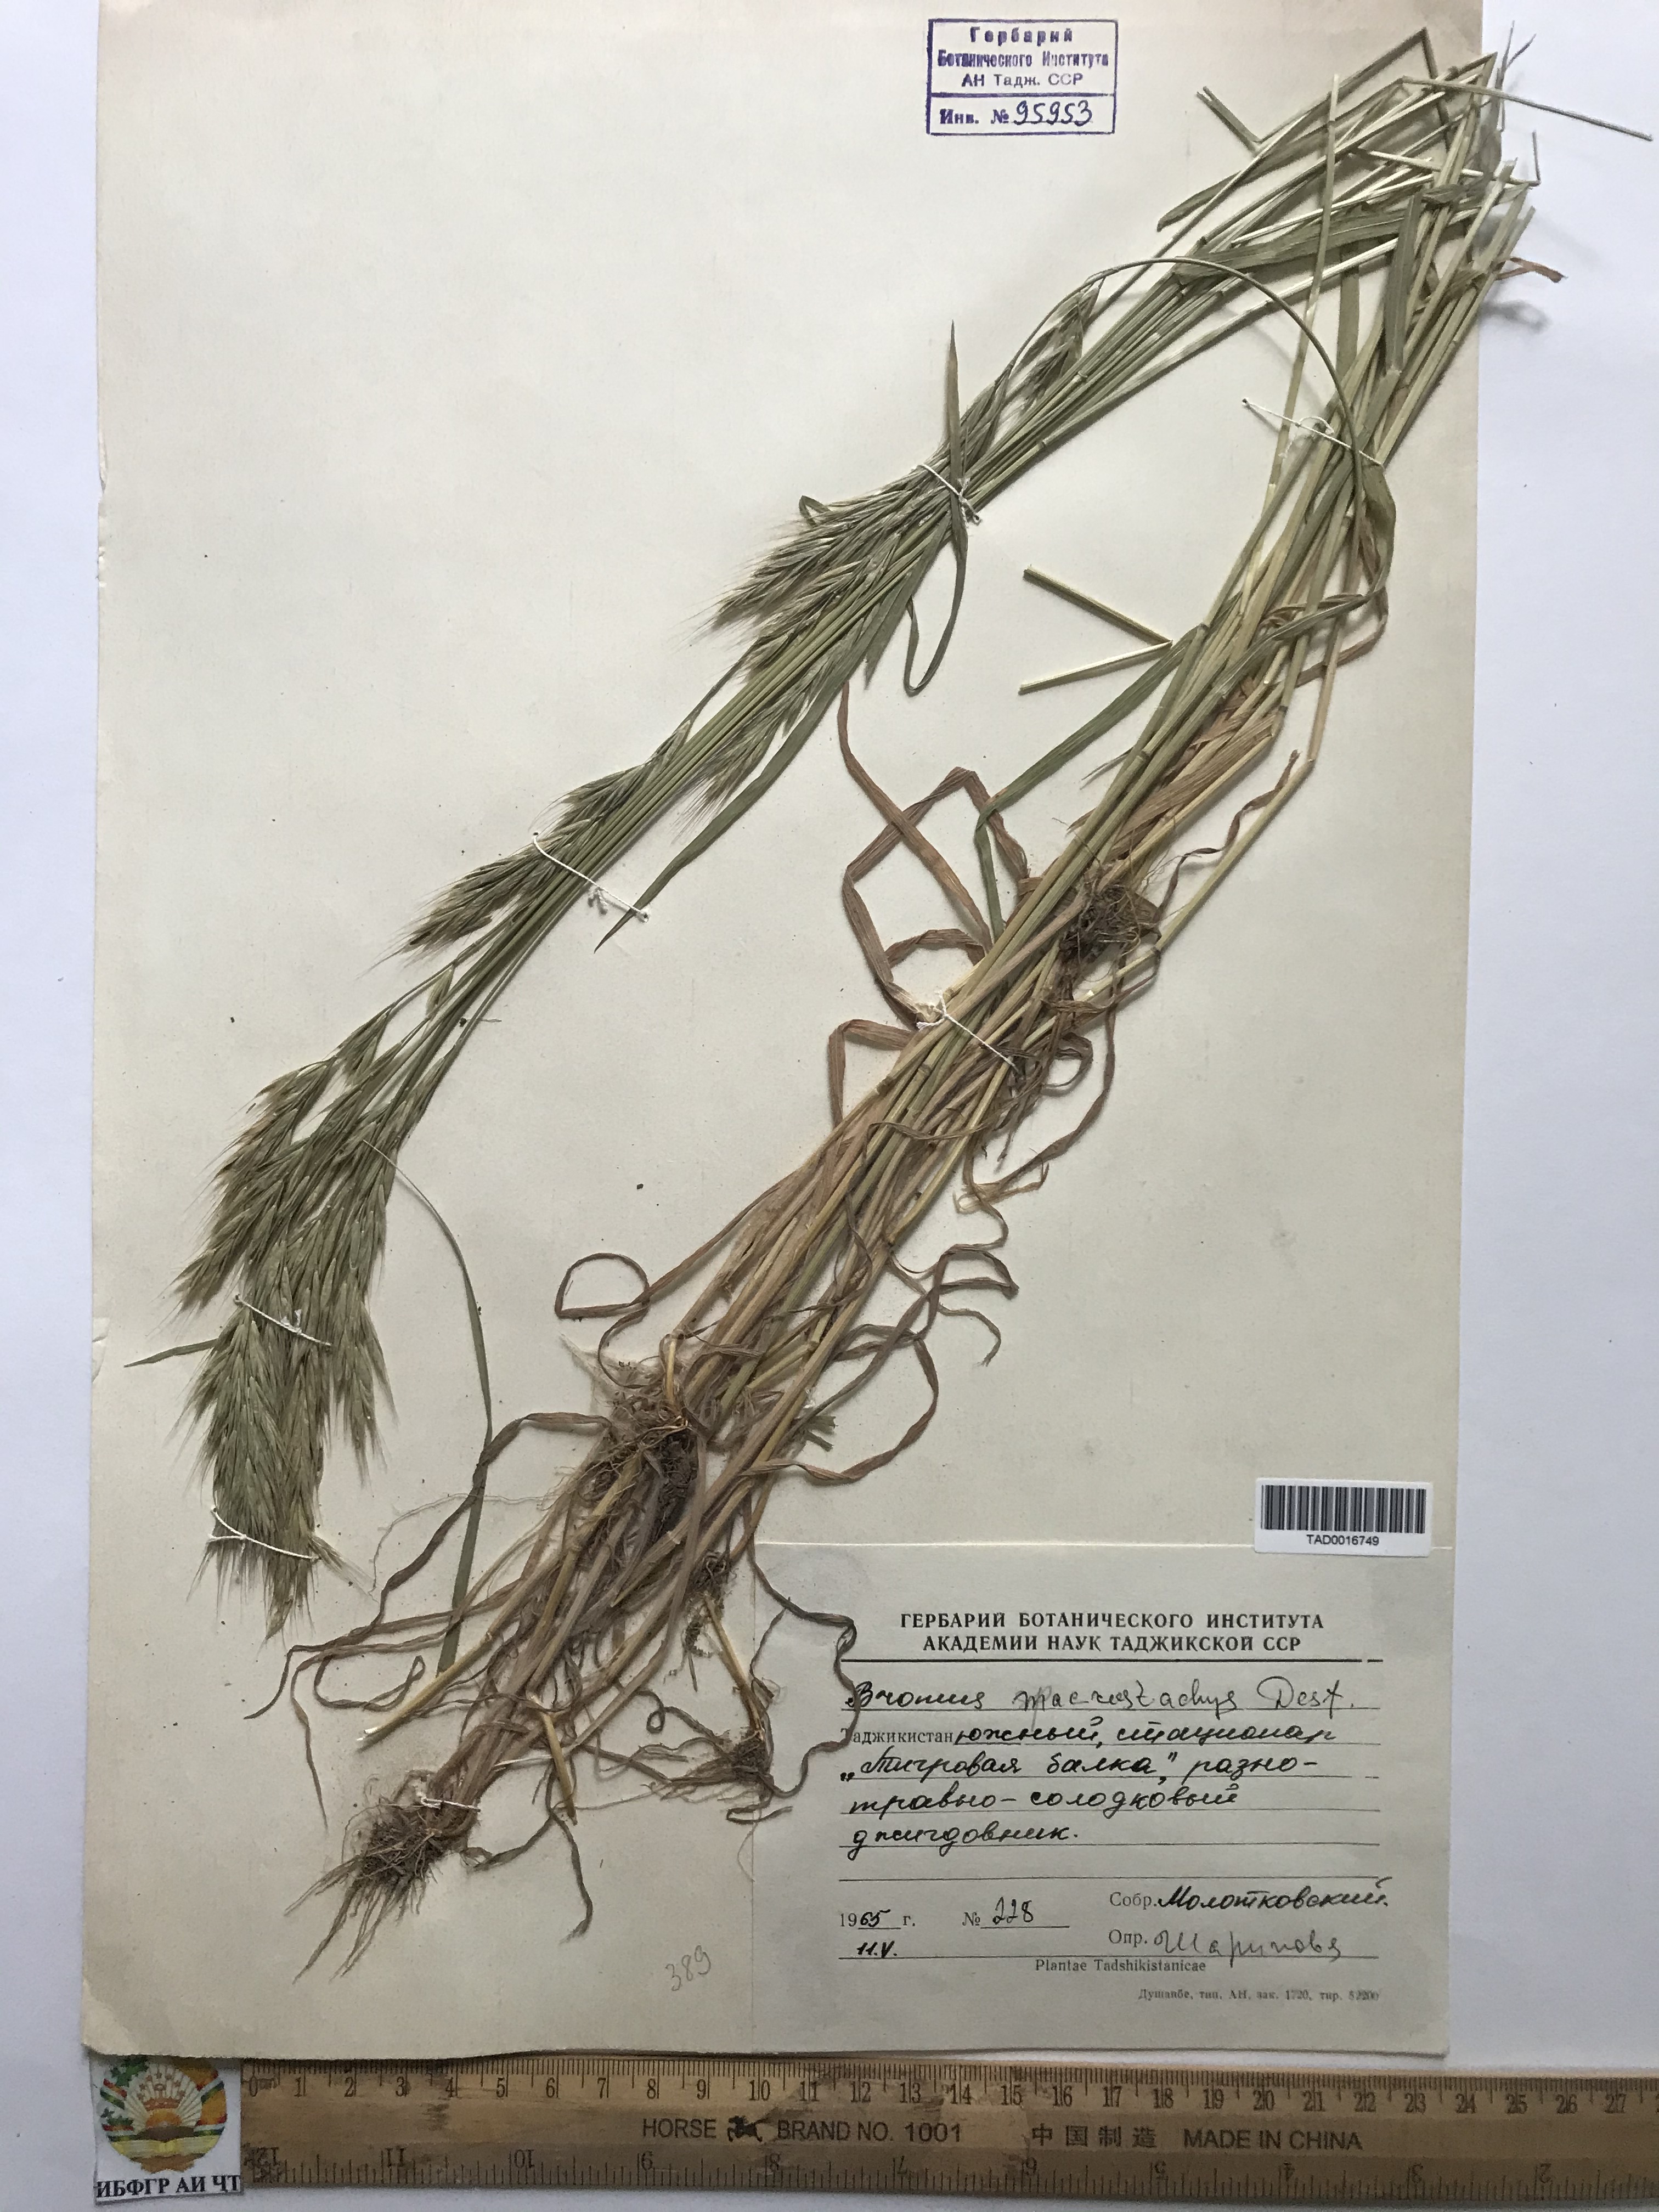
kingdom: Plantae
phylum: Tracheophyta
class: Liliopsida
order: Poales
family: Poaceae
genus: Bromus
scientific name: Bromus lanceolatus
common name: Mediterranean brome
